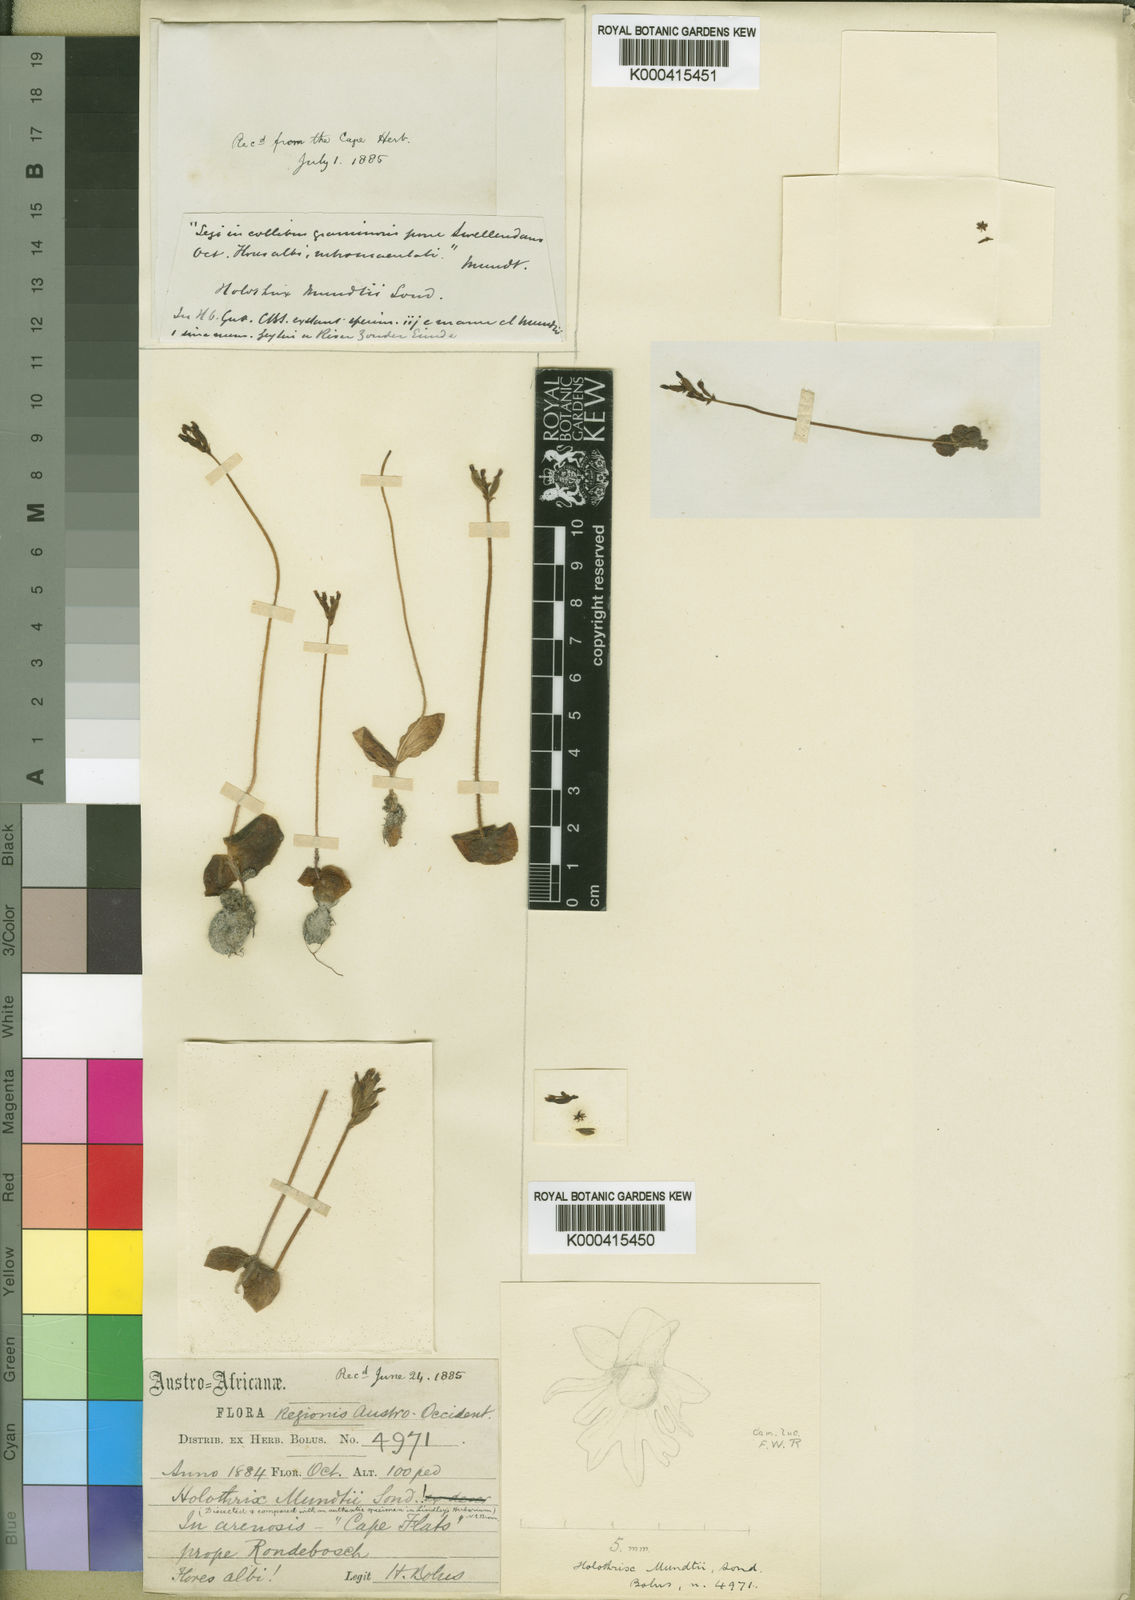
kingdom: Plantae
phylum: Tracheophyta
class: Liliopsida
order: Asparagales
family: Orchidaceae
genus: Holothrix
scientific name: Holothrix mundii
